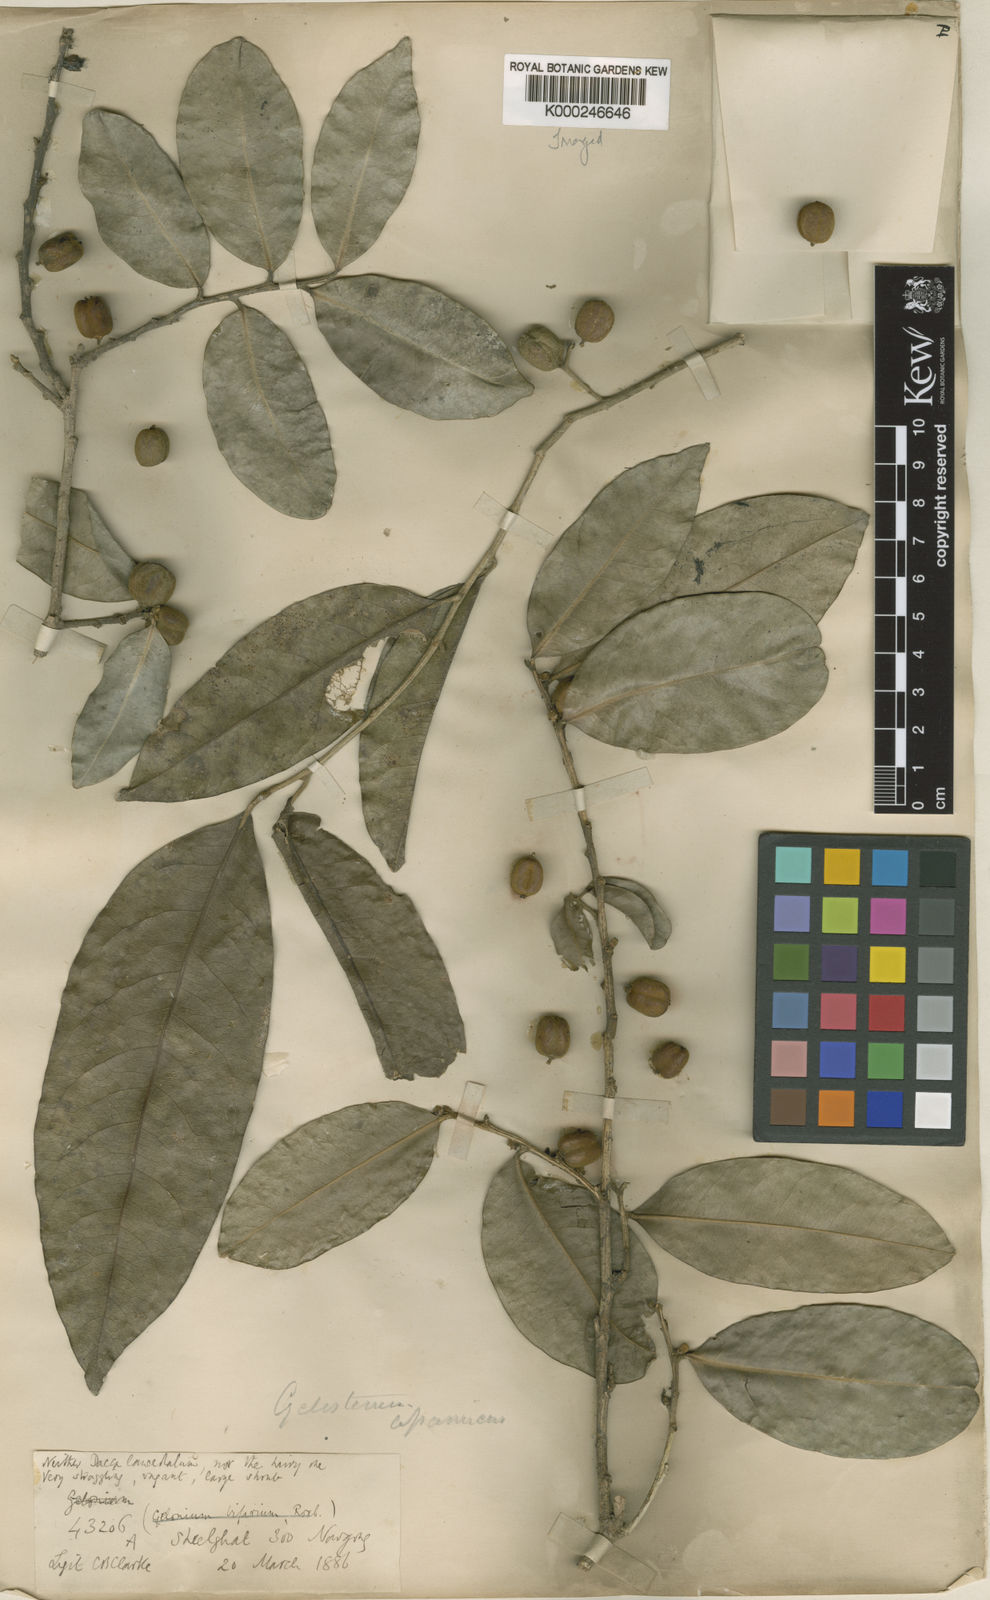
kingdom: Plantae
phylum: Tracheophyta
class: Magnoliopsida
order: Malpighiales
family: Putranjivaceae
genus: Drypetes
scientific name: Drypetes assamica
